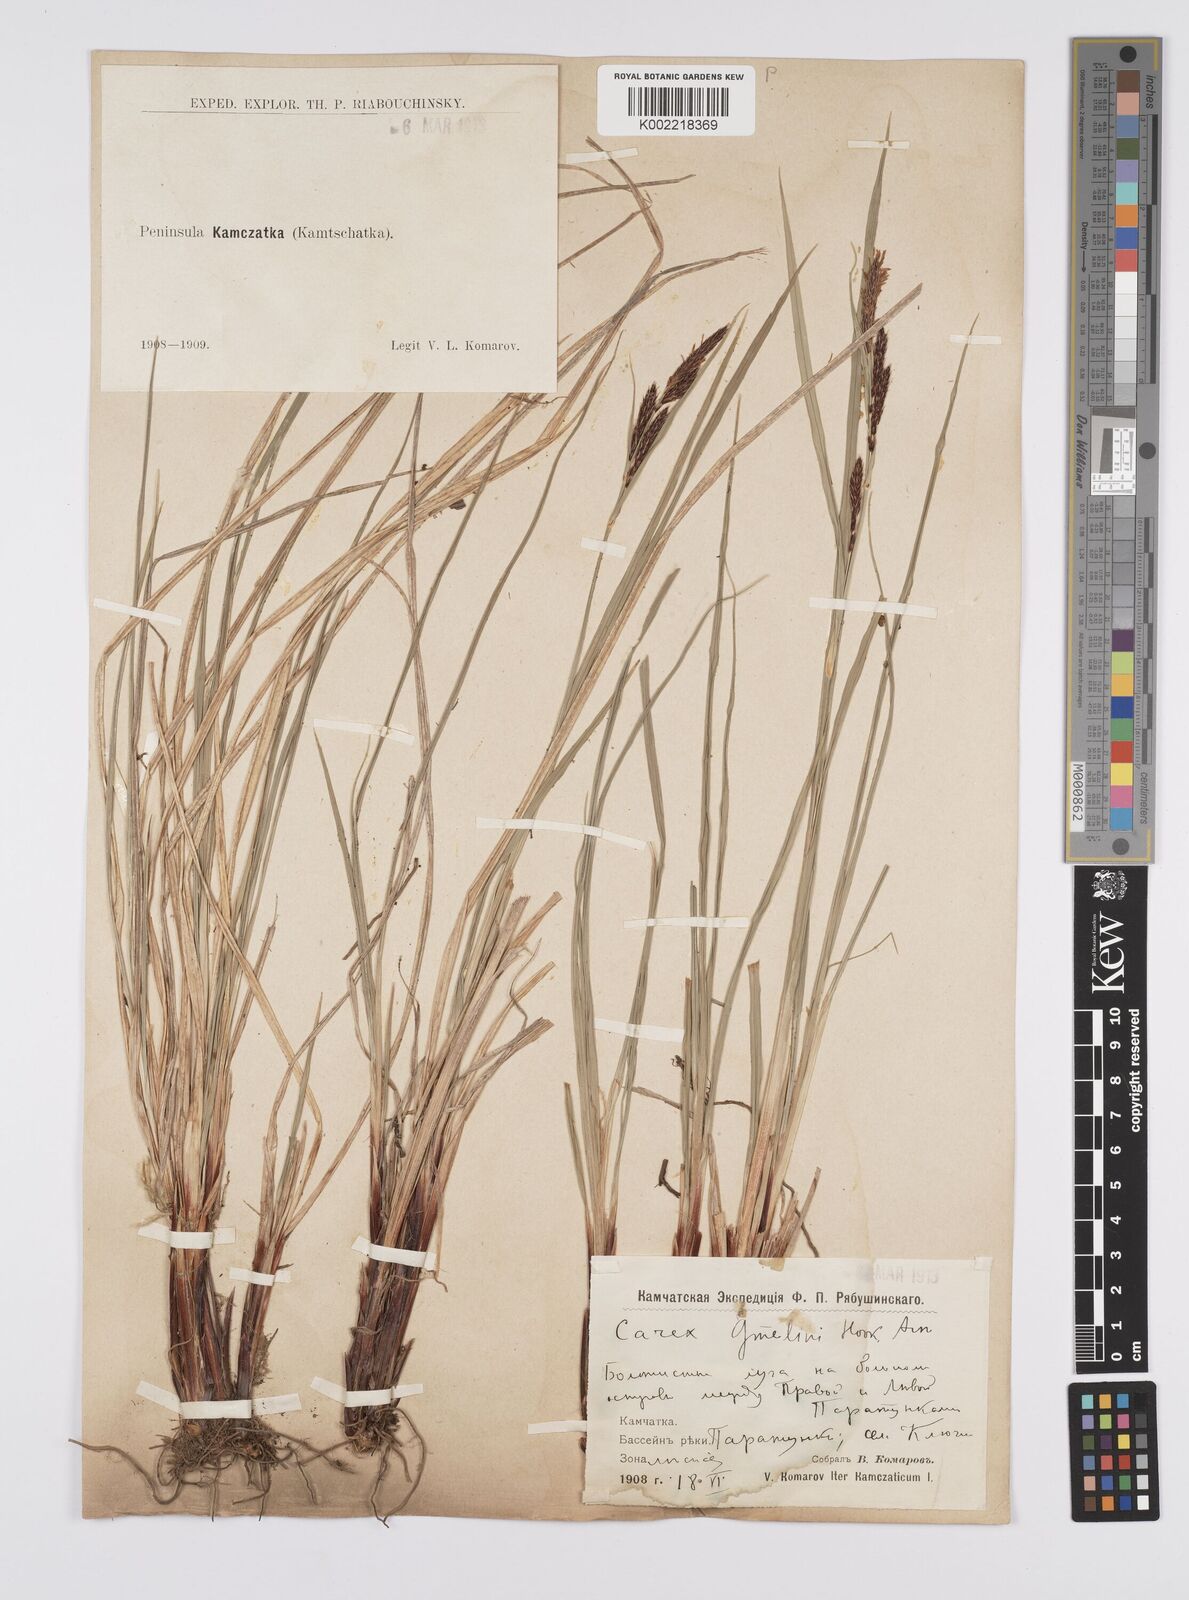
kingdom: Plantae
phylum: Tracheophyta
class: Liliopsida
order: Poales
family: Cyperaceae
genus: Carex
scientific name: Carex gmelinii
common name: Gmelin's sedge
